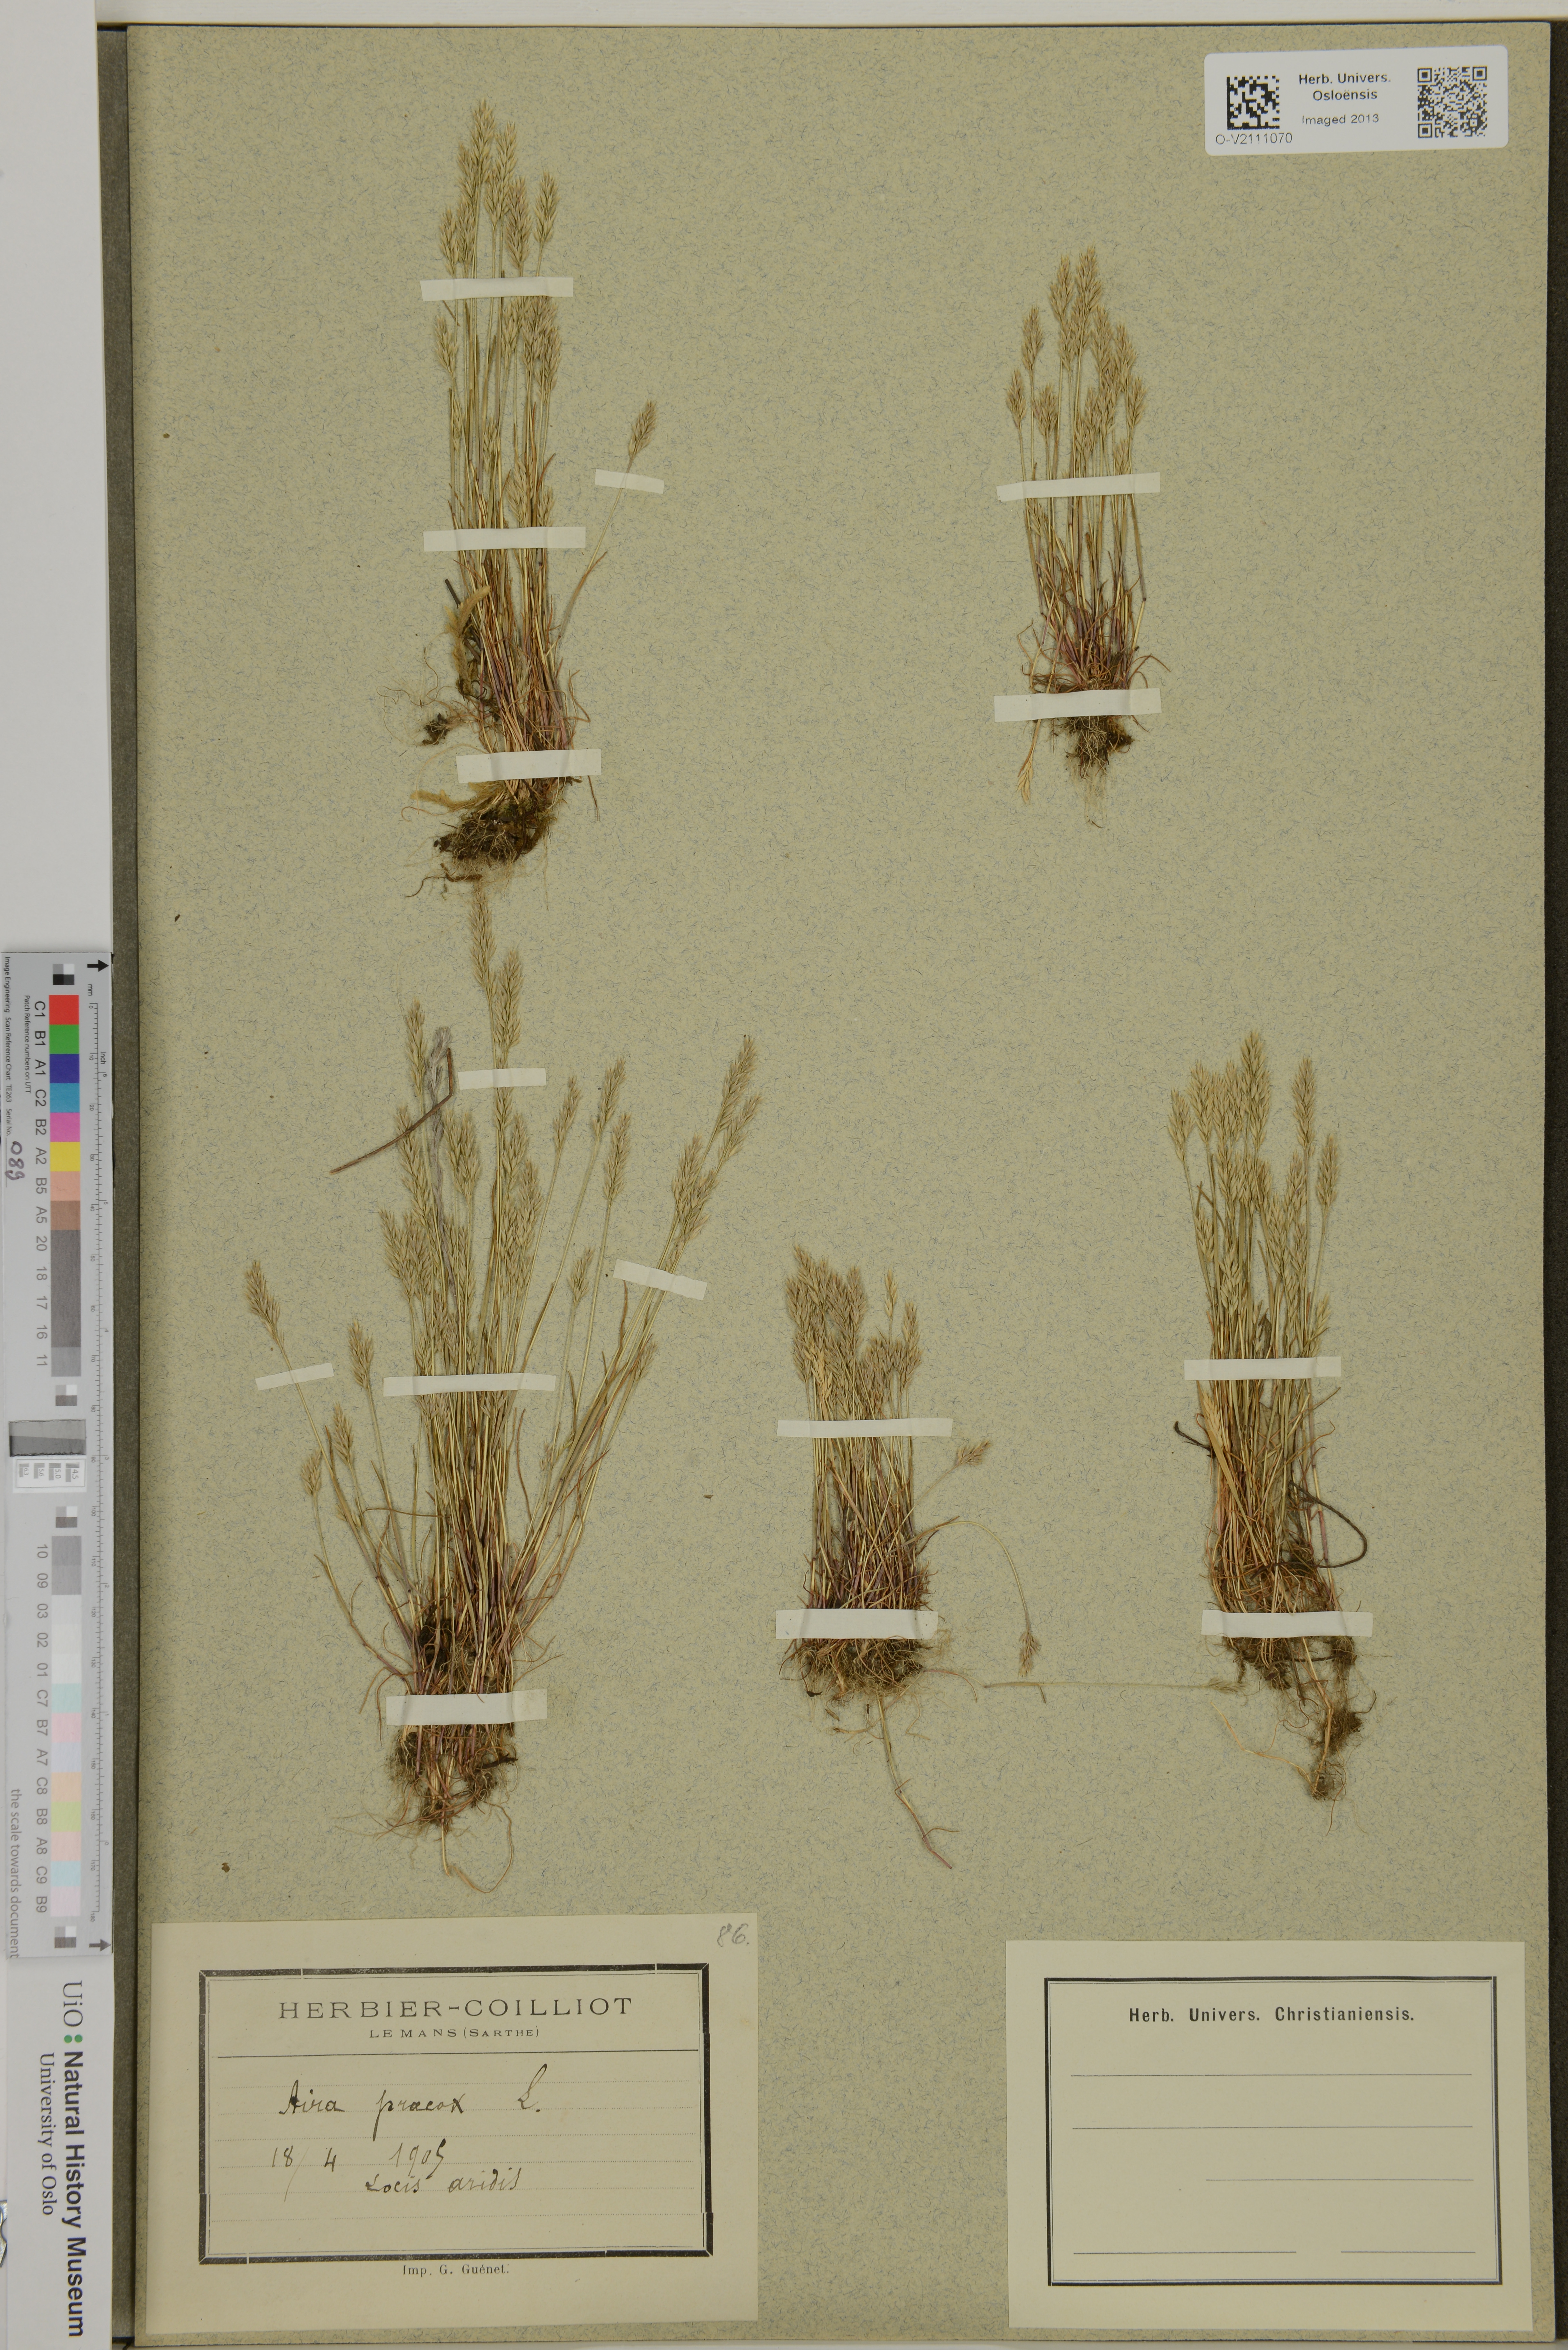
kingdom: Plantae
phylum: Tracheophyta
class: Liliopsida
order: Poales
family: Poaceae
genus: Aira
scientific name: Aira praecox
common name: Early hair-grass
